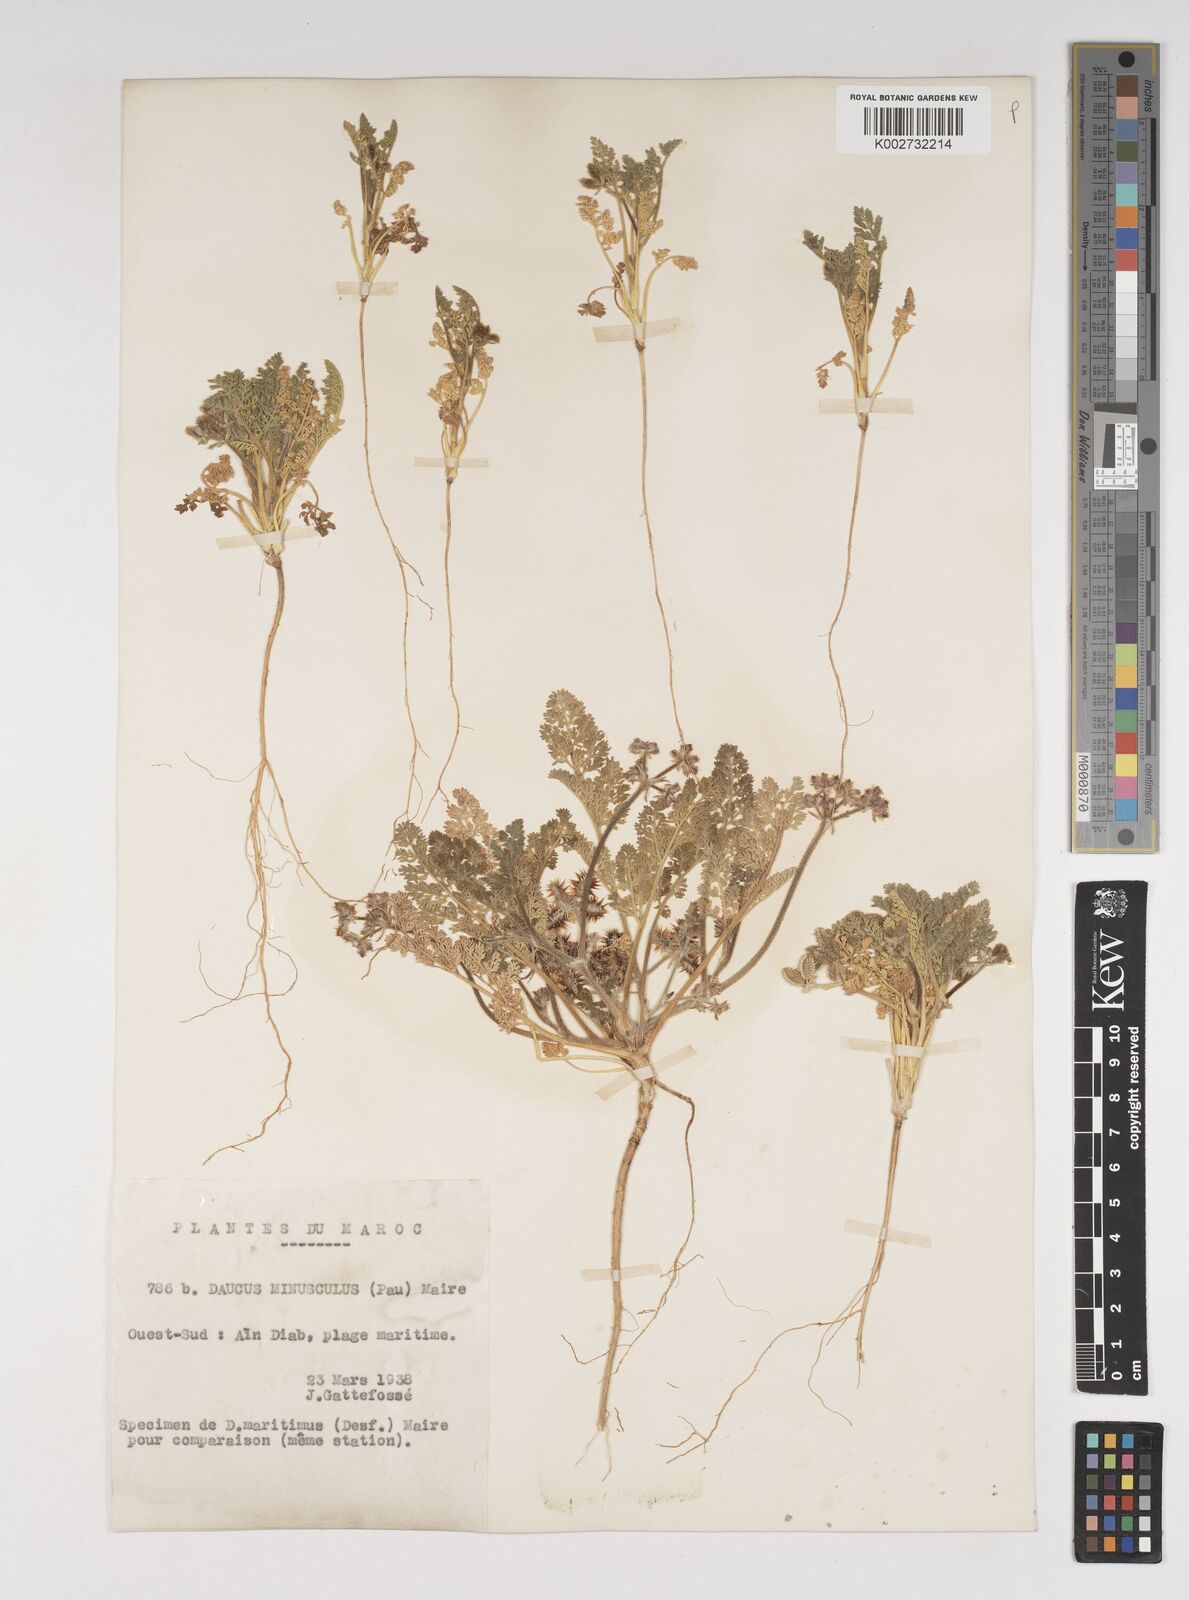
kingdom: Plantae
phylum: Tracheophyta
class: Magnoliopsida
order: Apiales
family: Apiaceae
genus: Daucus
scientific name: Daucus pumilus
